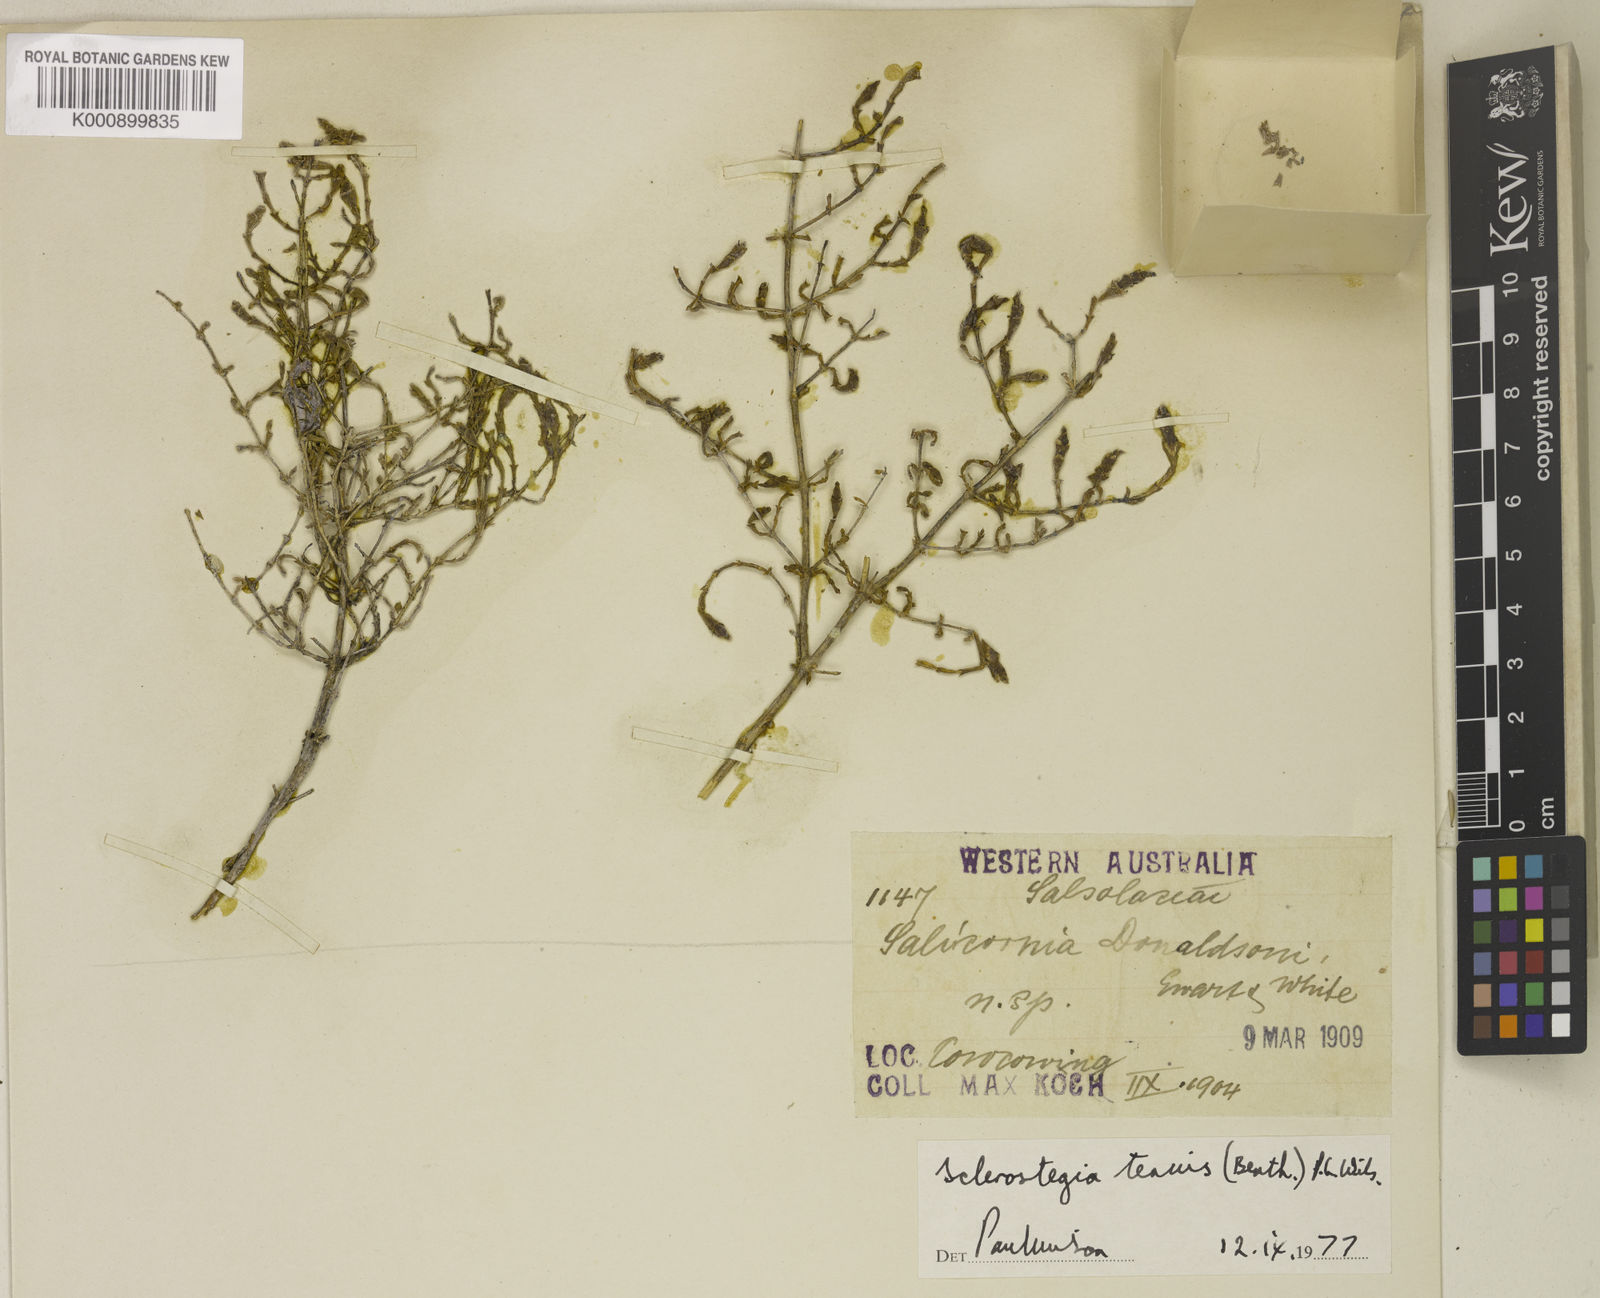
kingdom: Plantae
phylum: Tracheophyta
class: Magnoliopsida
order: Caryophyllales
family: Amaranthaceae
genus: Tecticornia
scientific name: Tecticornia tenuis
